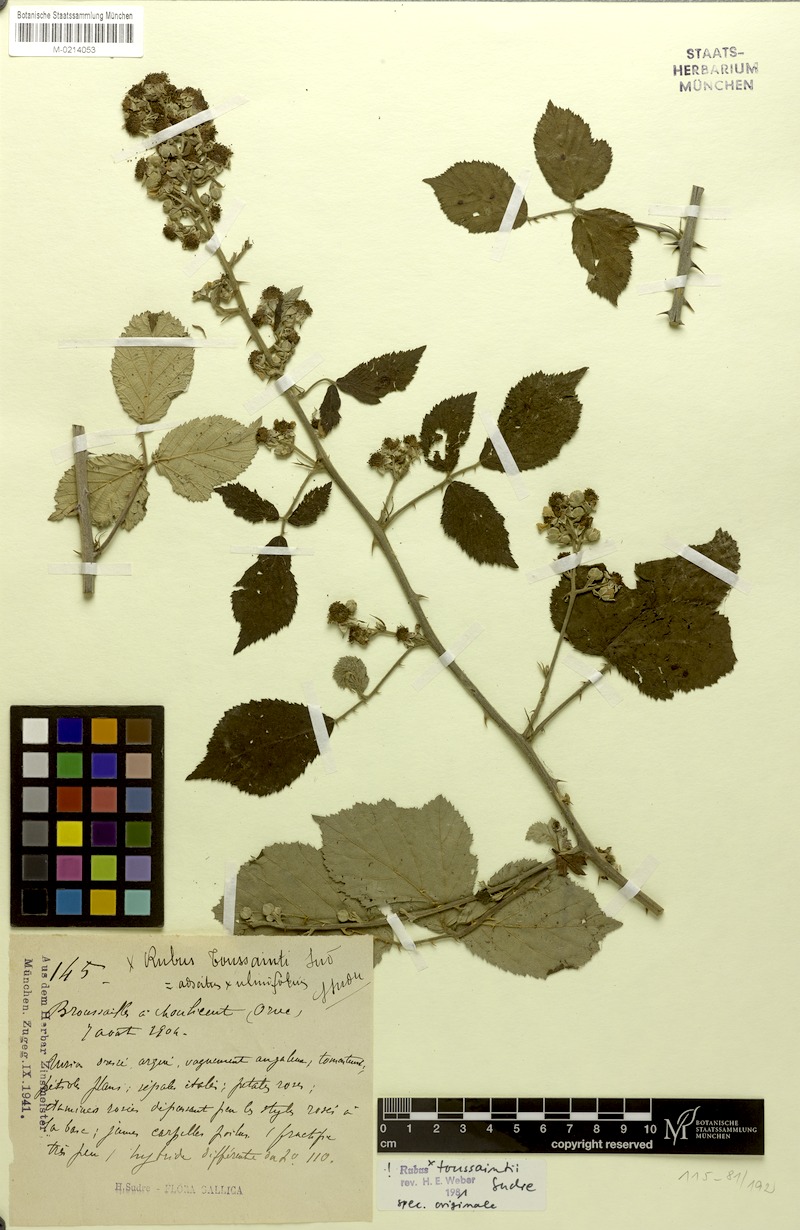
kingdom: Plantae
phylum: Tracheophyta
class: Magnoliopsida
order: Rosales
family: Rosaceae
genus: Rubus
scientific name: Rubus toussaintii
